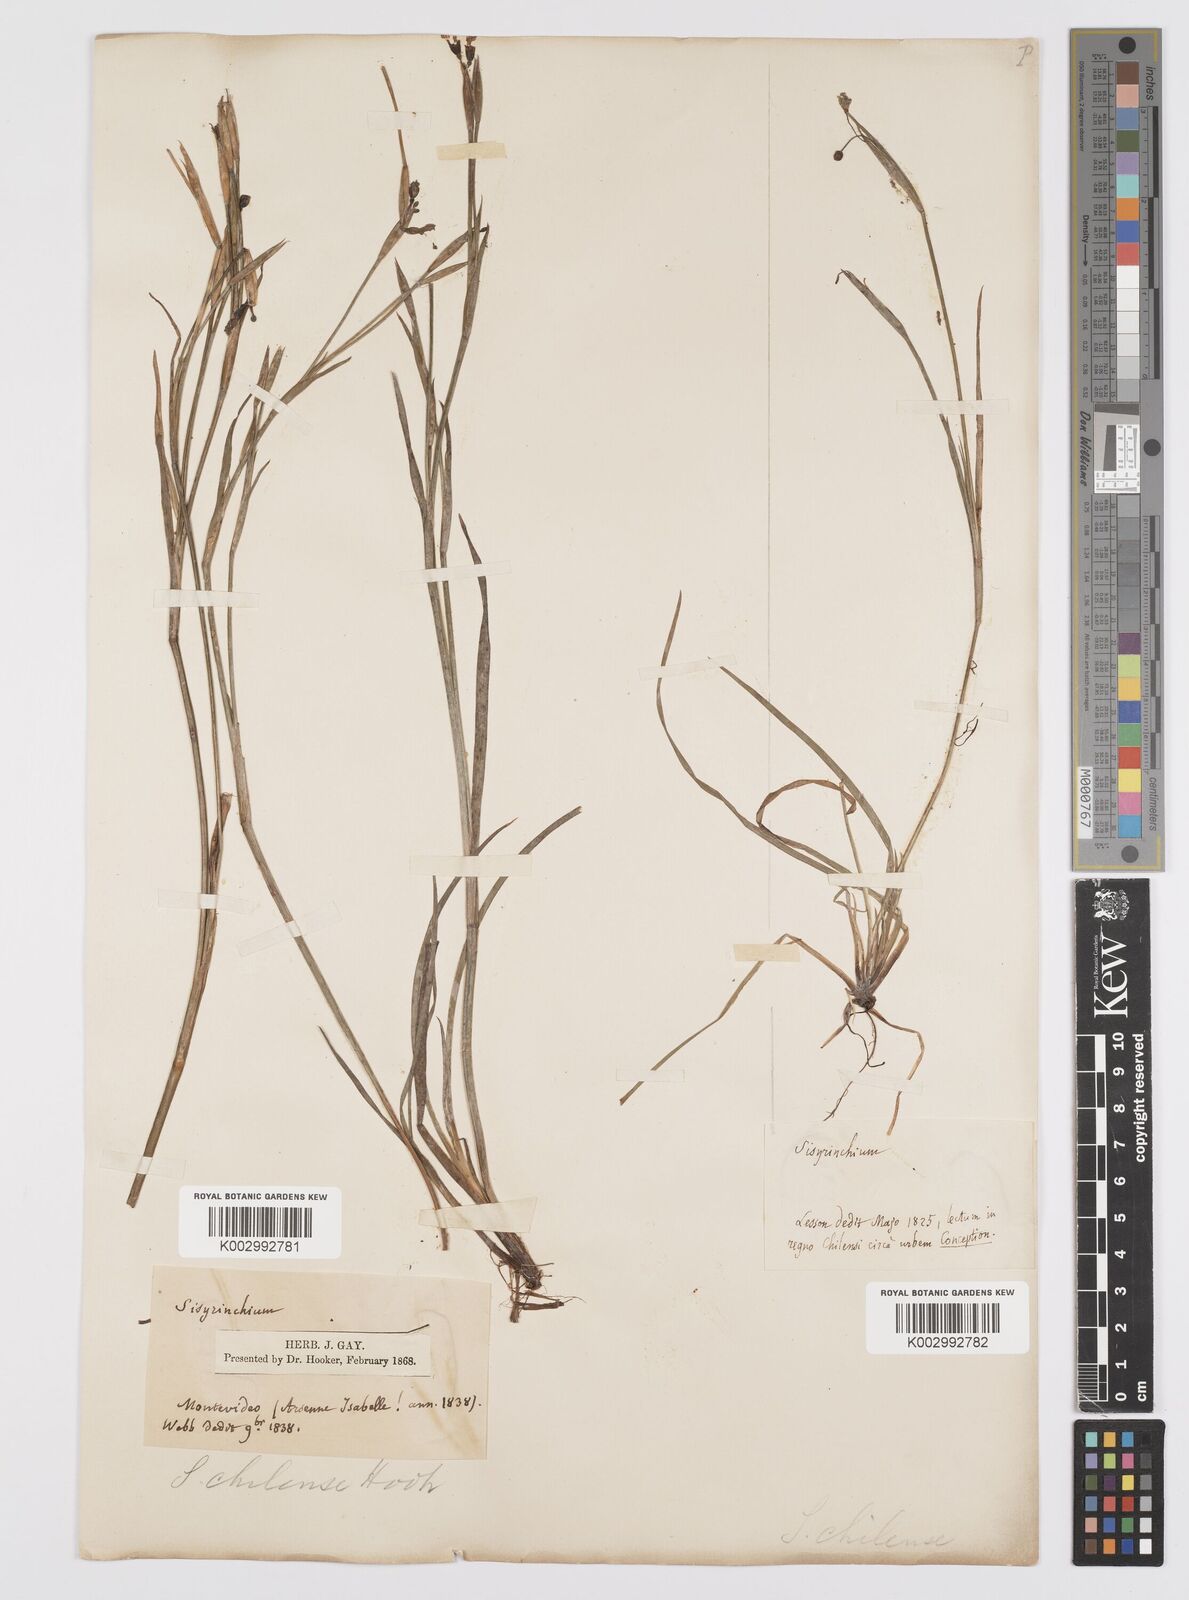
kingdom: Plantae
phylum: Tracheophyta
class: Liliopsida
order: Asparagales
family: Iridaceae
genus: Sisyrinchium
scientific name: Sisyrinchium chilense
